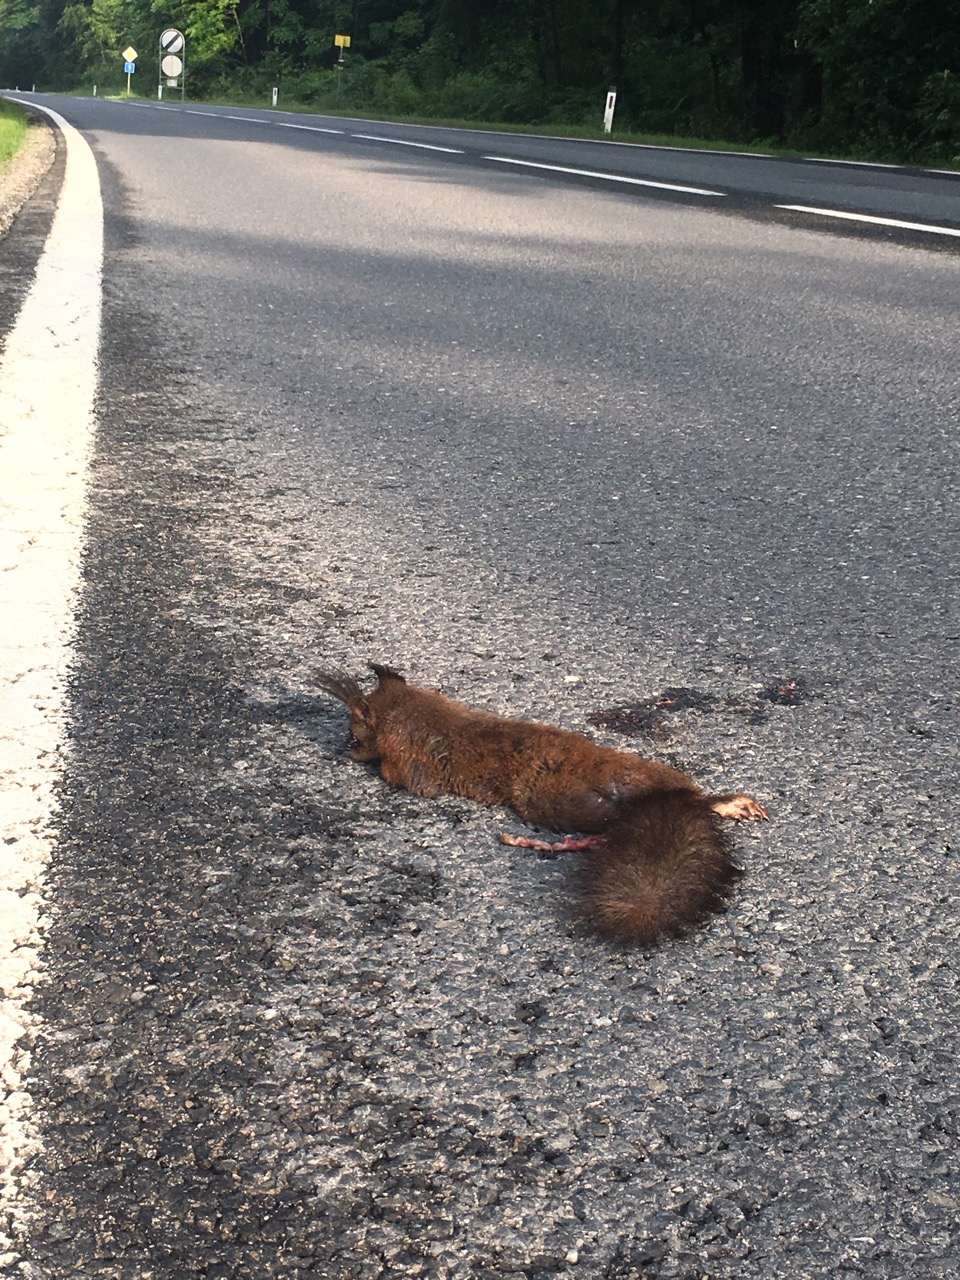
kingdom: Animalia
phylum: Chordata
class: Mammalia
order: Rodentia
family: Sciuridae
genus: Sciurus
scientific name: Sciurus vulgaris
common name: Eurasian red squirrel
